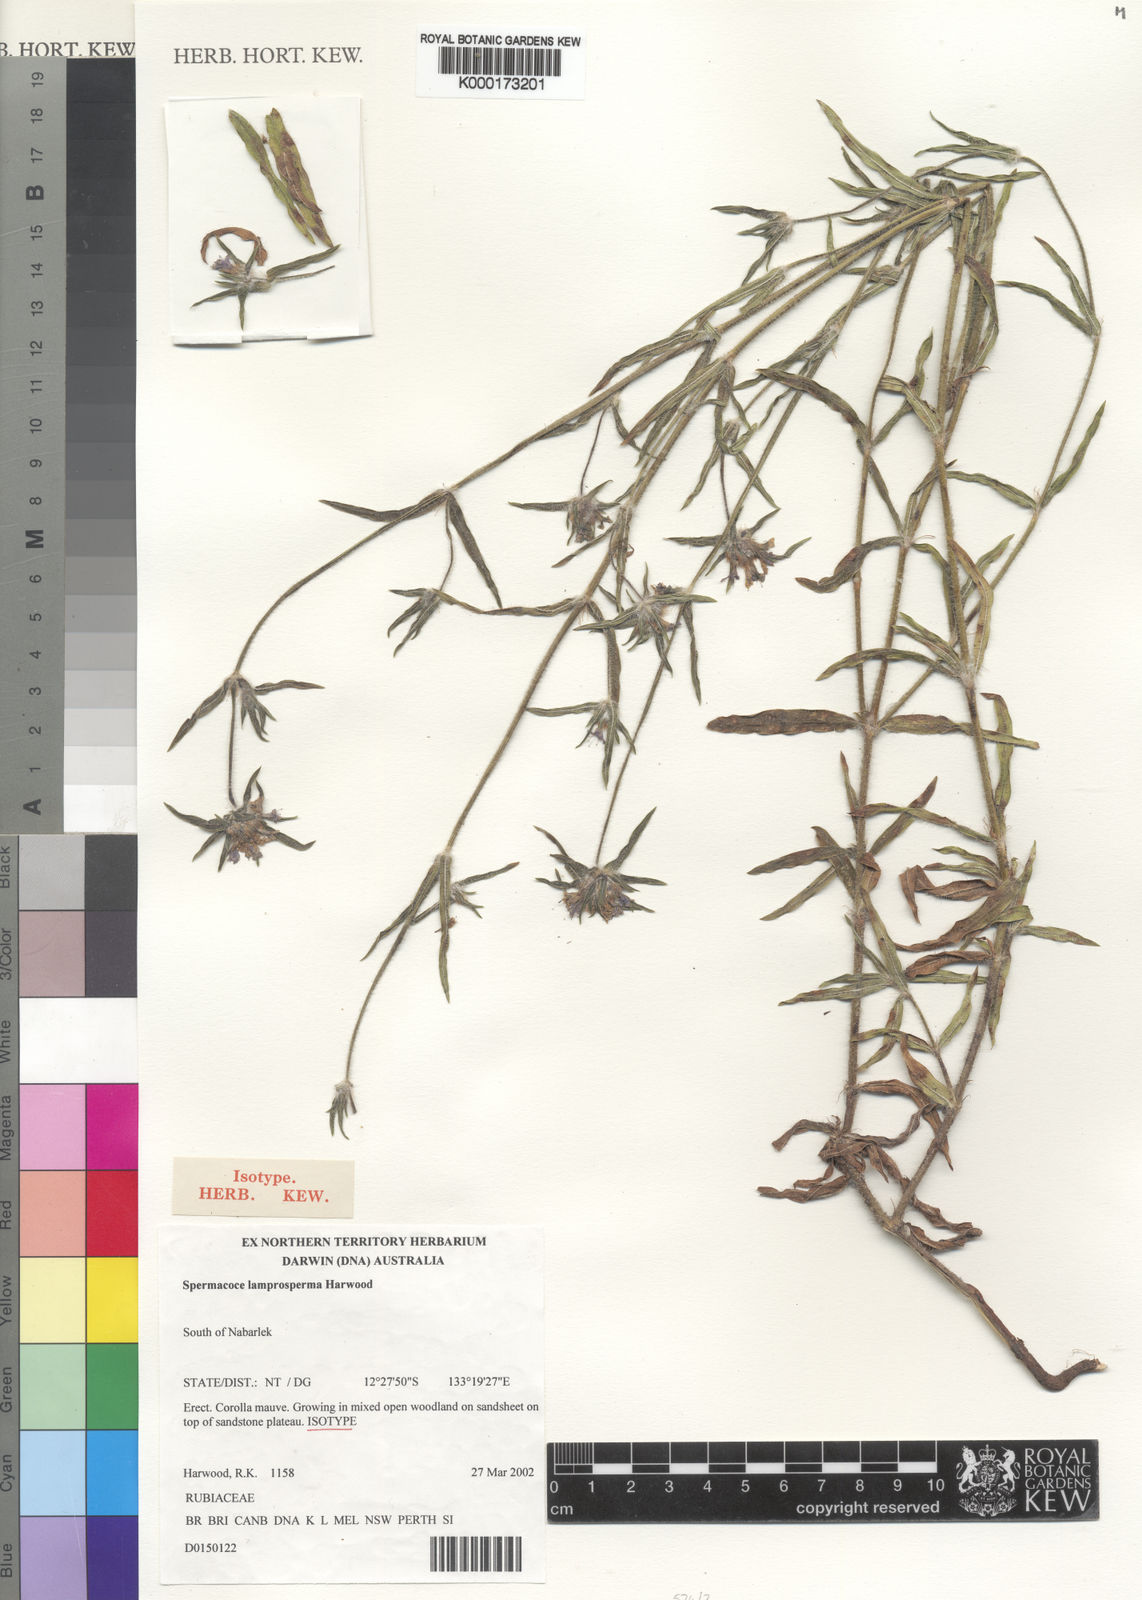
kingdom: Plantae
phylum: Tracheophyta
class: Magnoliopsida
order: Gentianales
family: Rubiaceae
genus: Spermacoce
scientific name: Spermacoce lamprosperma
